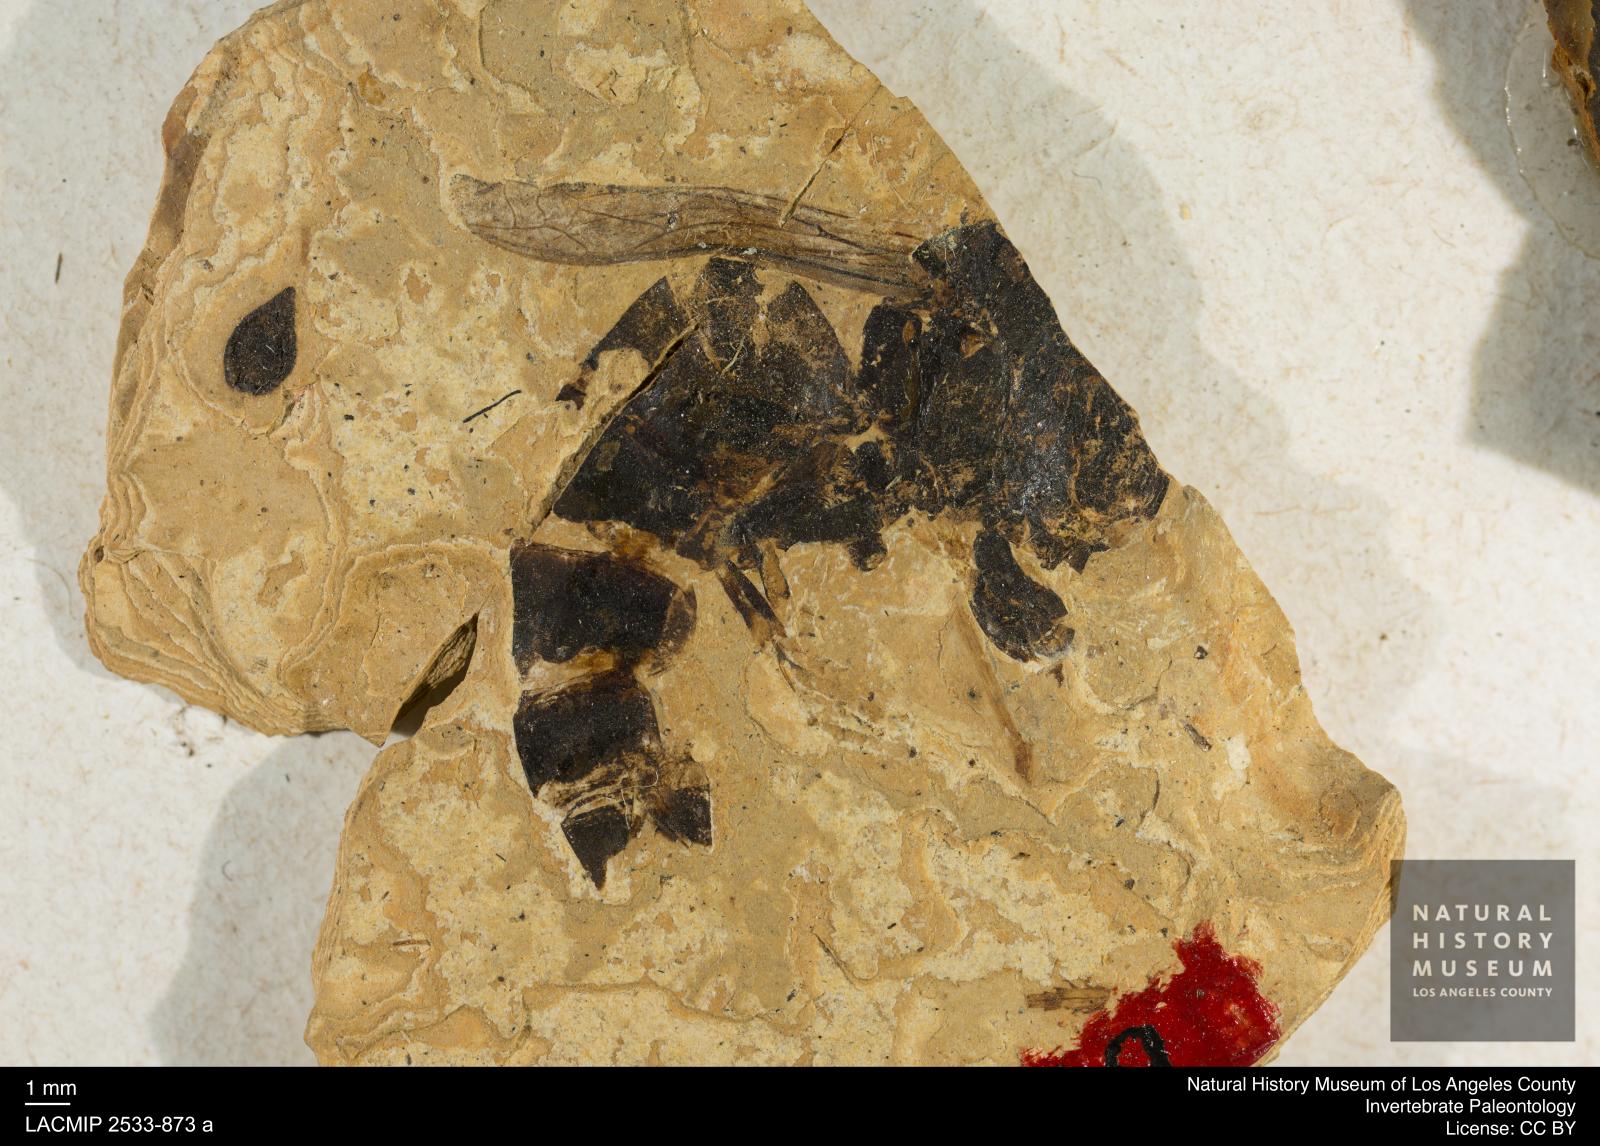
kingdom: Animalia
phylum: Arthropoda
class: Insecta
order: Hymenoptera
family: Vespidae
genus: Vespa
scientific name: Vespa nigra
